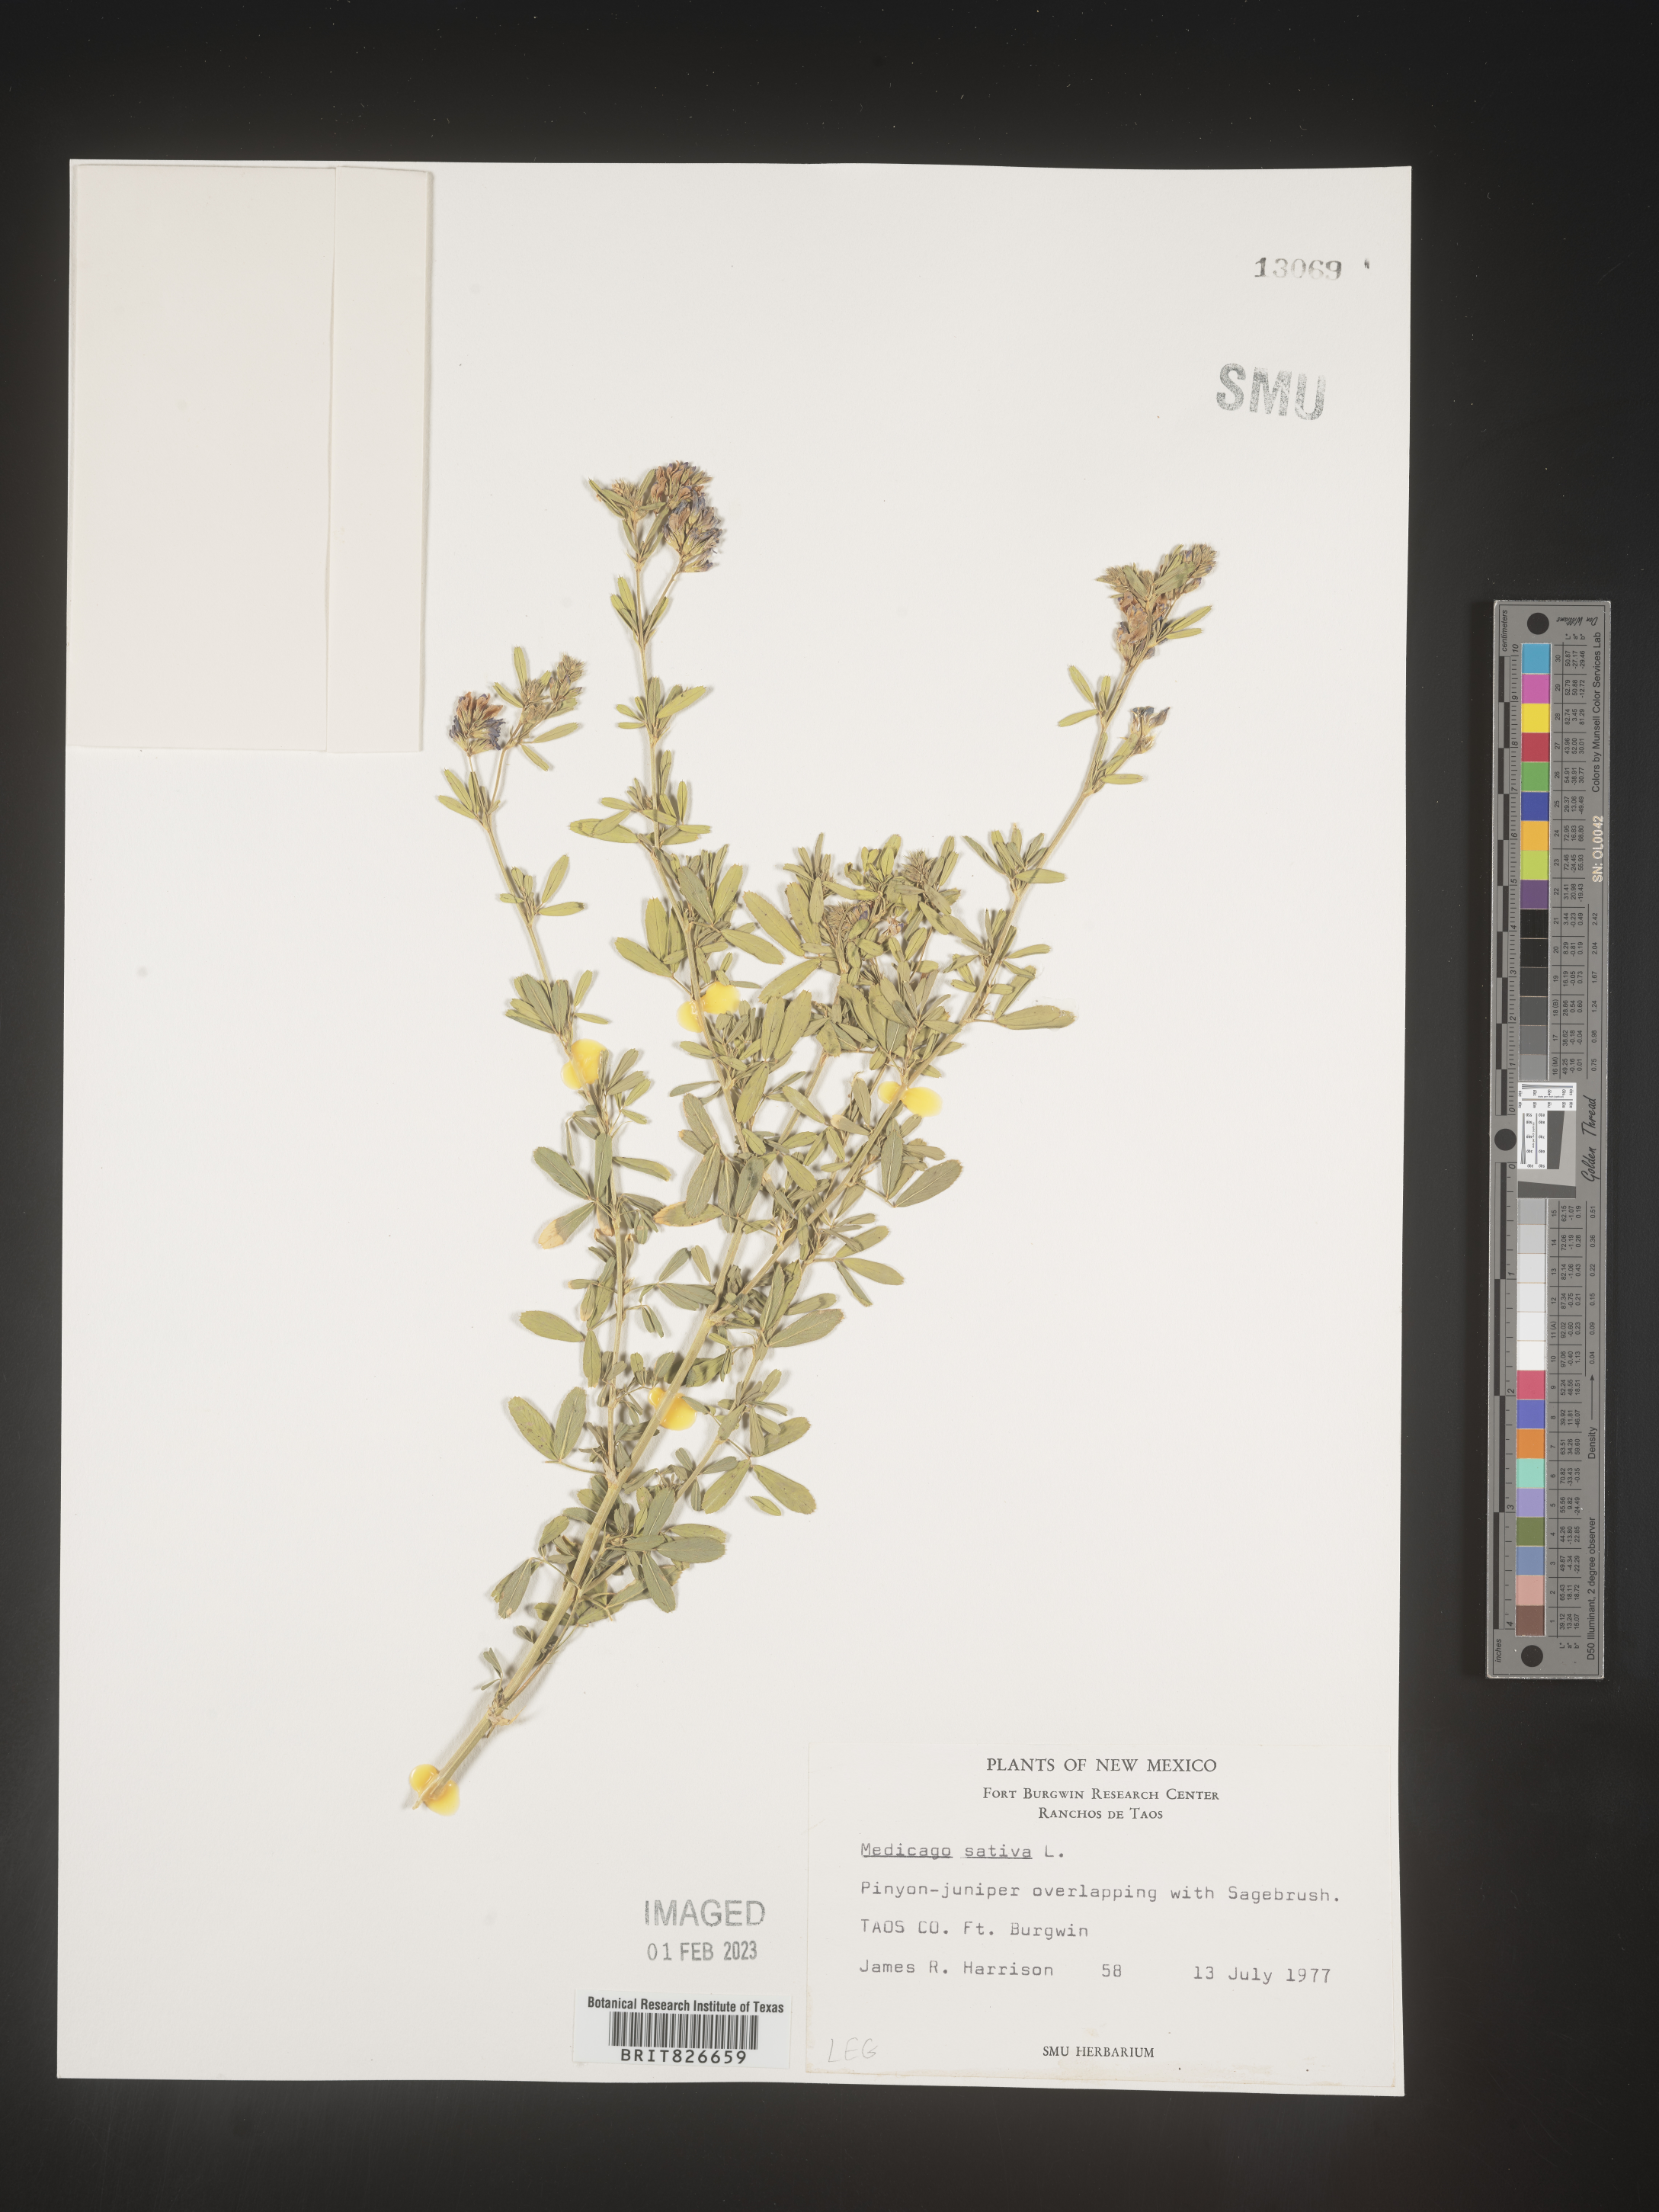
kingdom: Plantae
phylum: Tracheophyta
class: Magnoliopsida
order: Fabales
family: Fabaceae
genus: Medicago
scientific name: Medicago sativa
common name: Alfalfa
